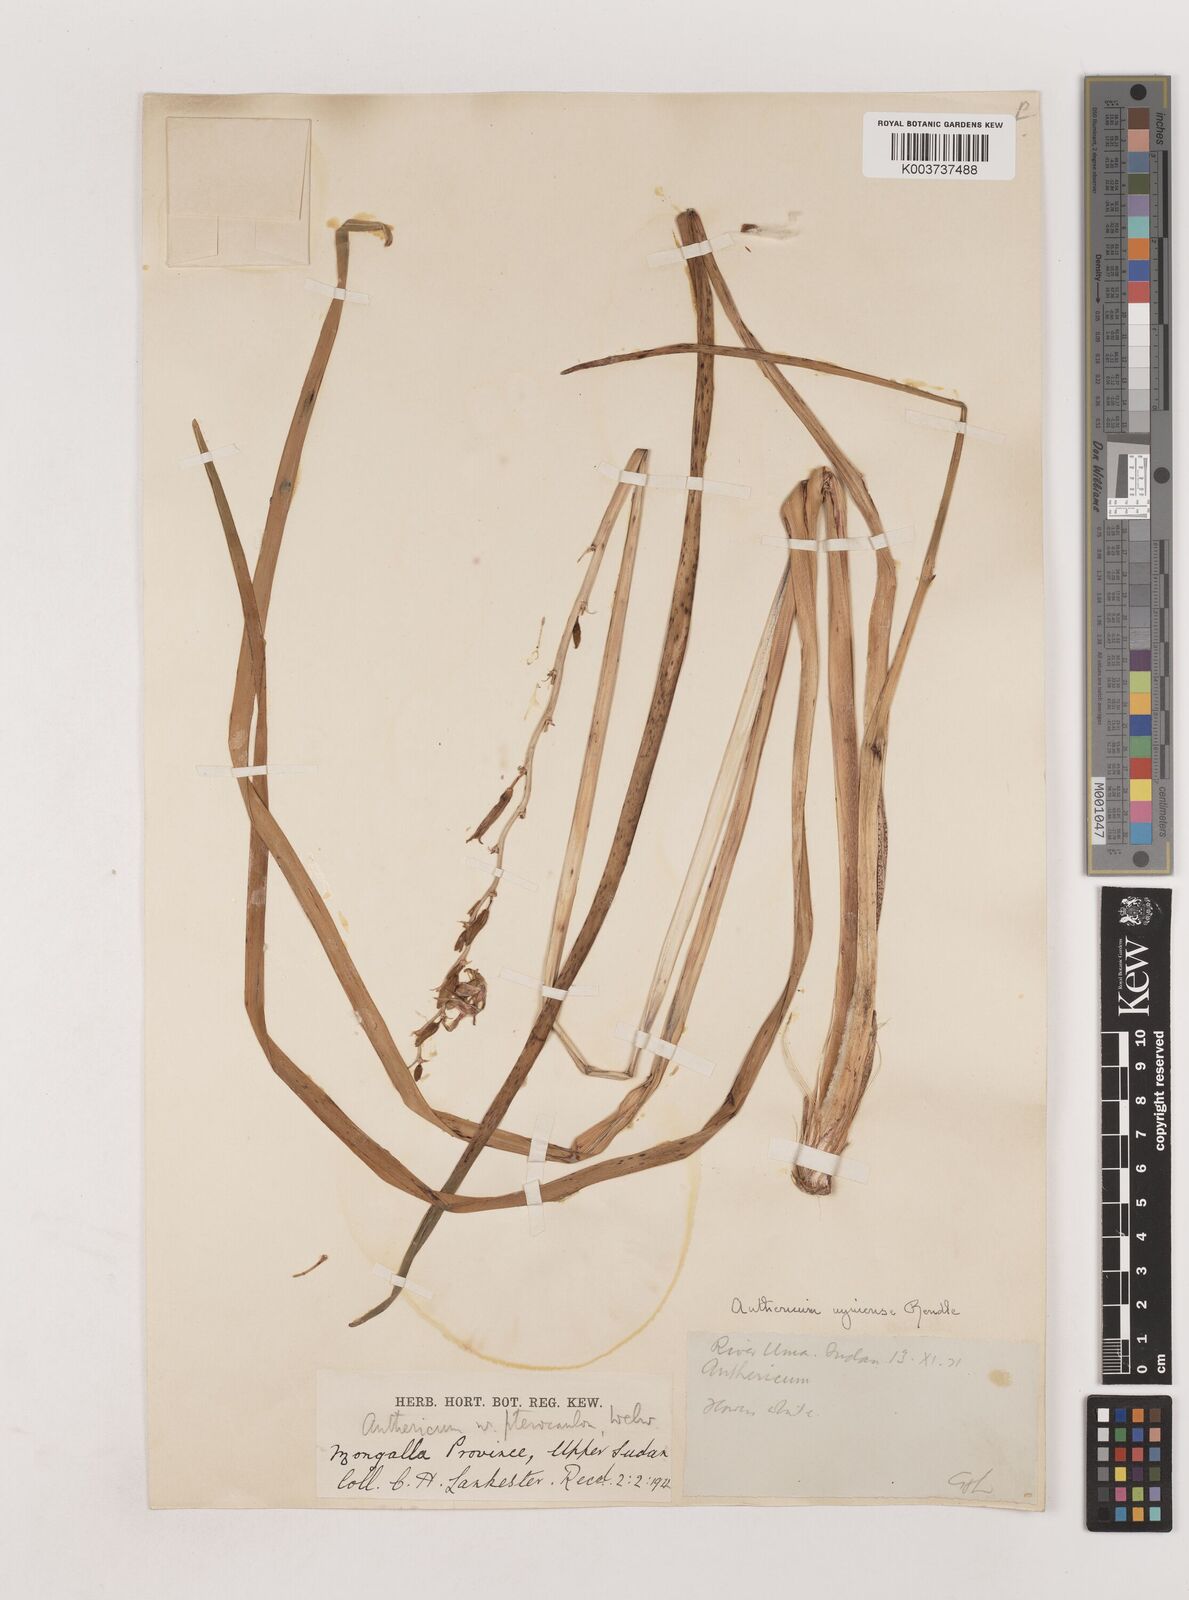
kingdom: Plantae
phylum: Tracheophyta
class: Liliopsida
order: Asparagales
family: Asparagaceae
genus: Chlorophytum
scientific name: Chlorophytum cameronii
